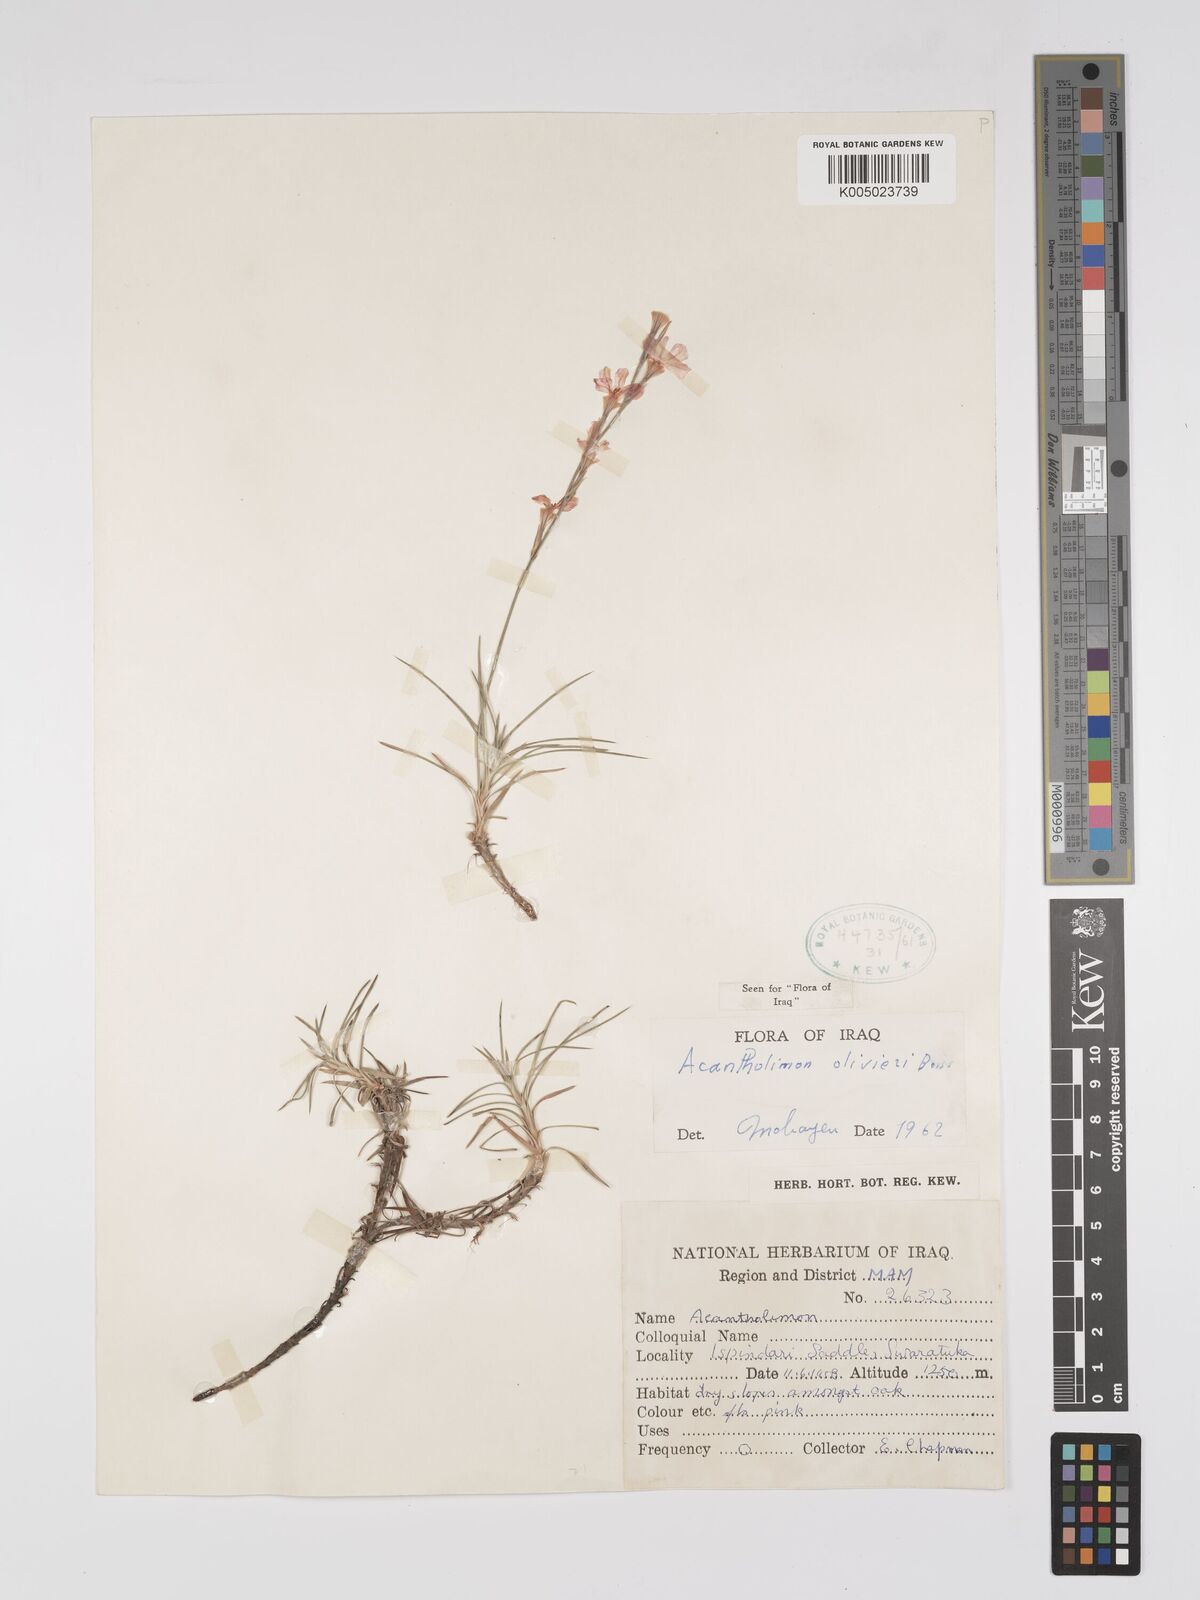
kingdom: Plantae
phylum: Tracheophyta
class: Magnoliopsida
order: Caryophyllales
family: Plumbaginaceae
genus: Acantholimon
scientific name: Acantholimon oliveri
